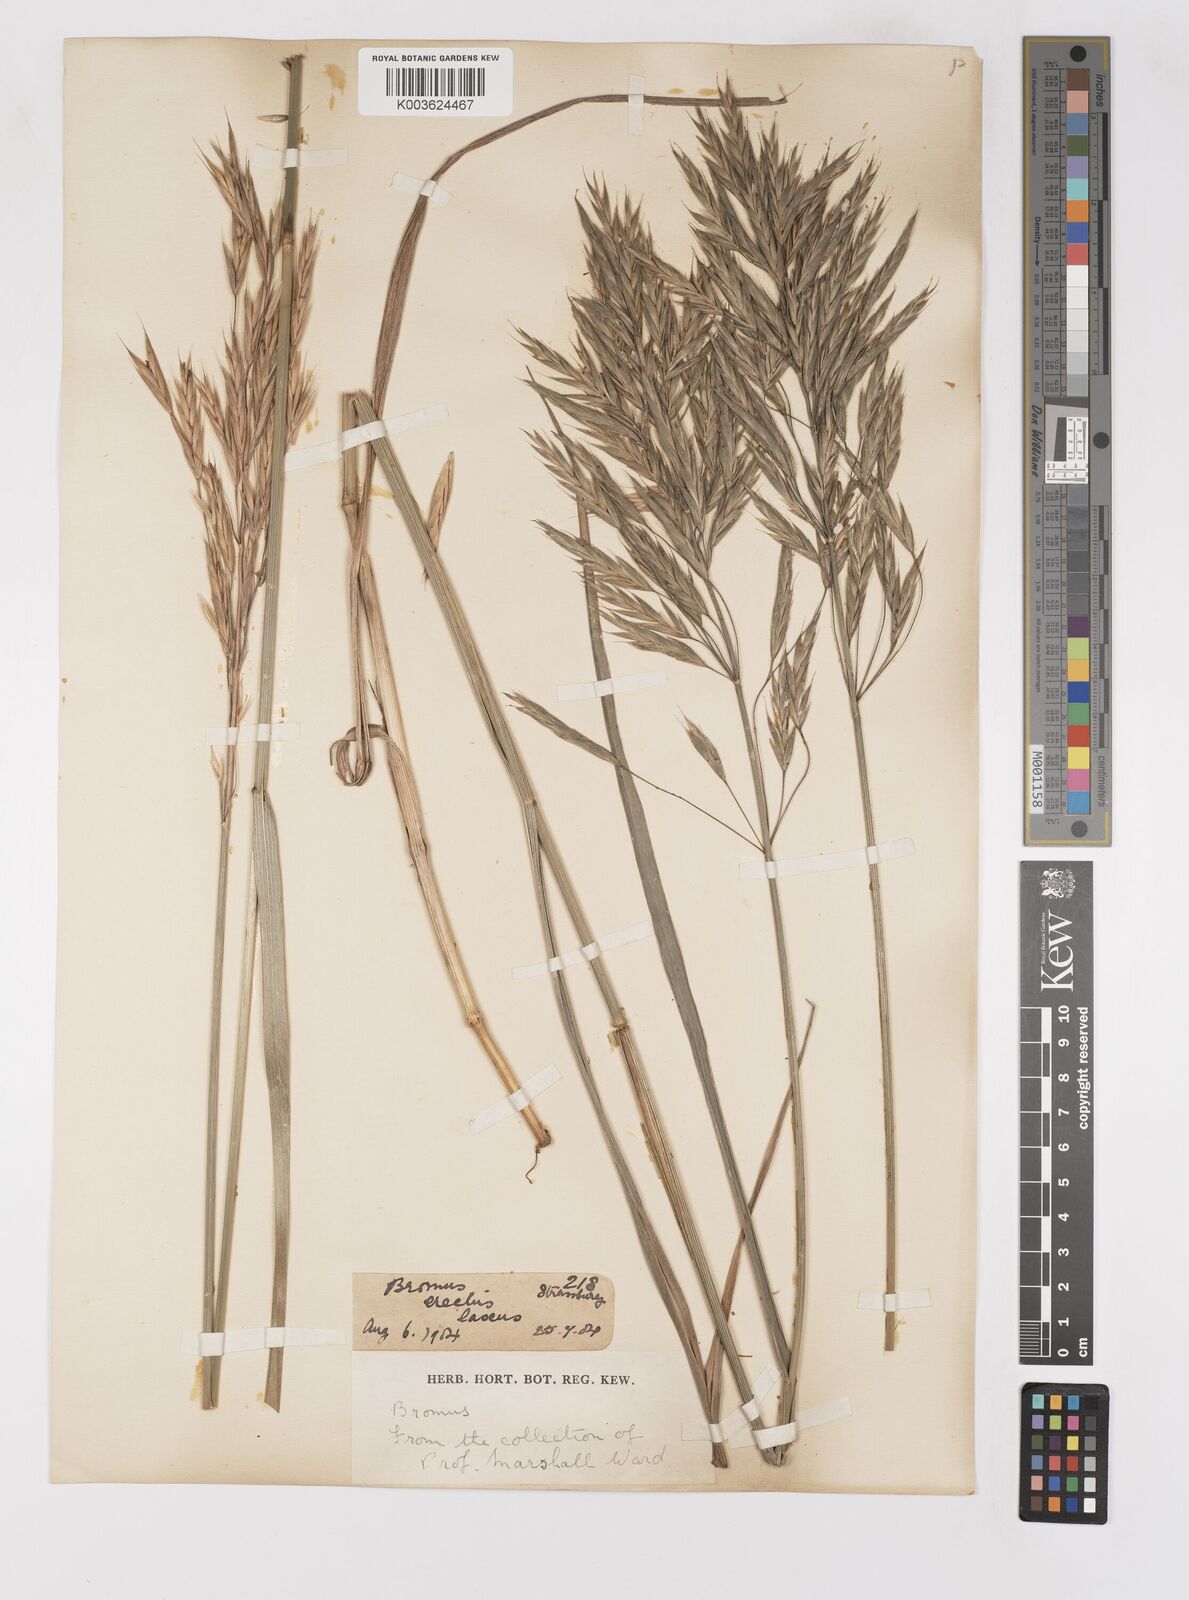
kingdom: Plantae
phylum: Tracheophyta
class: Liliopsida
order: Poales
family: Poaceae
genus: Bromus
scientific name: Bromus
